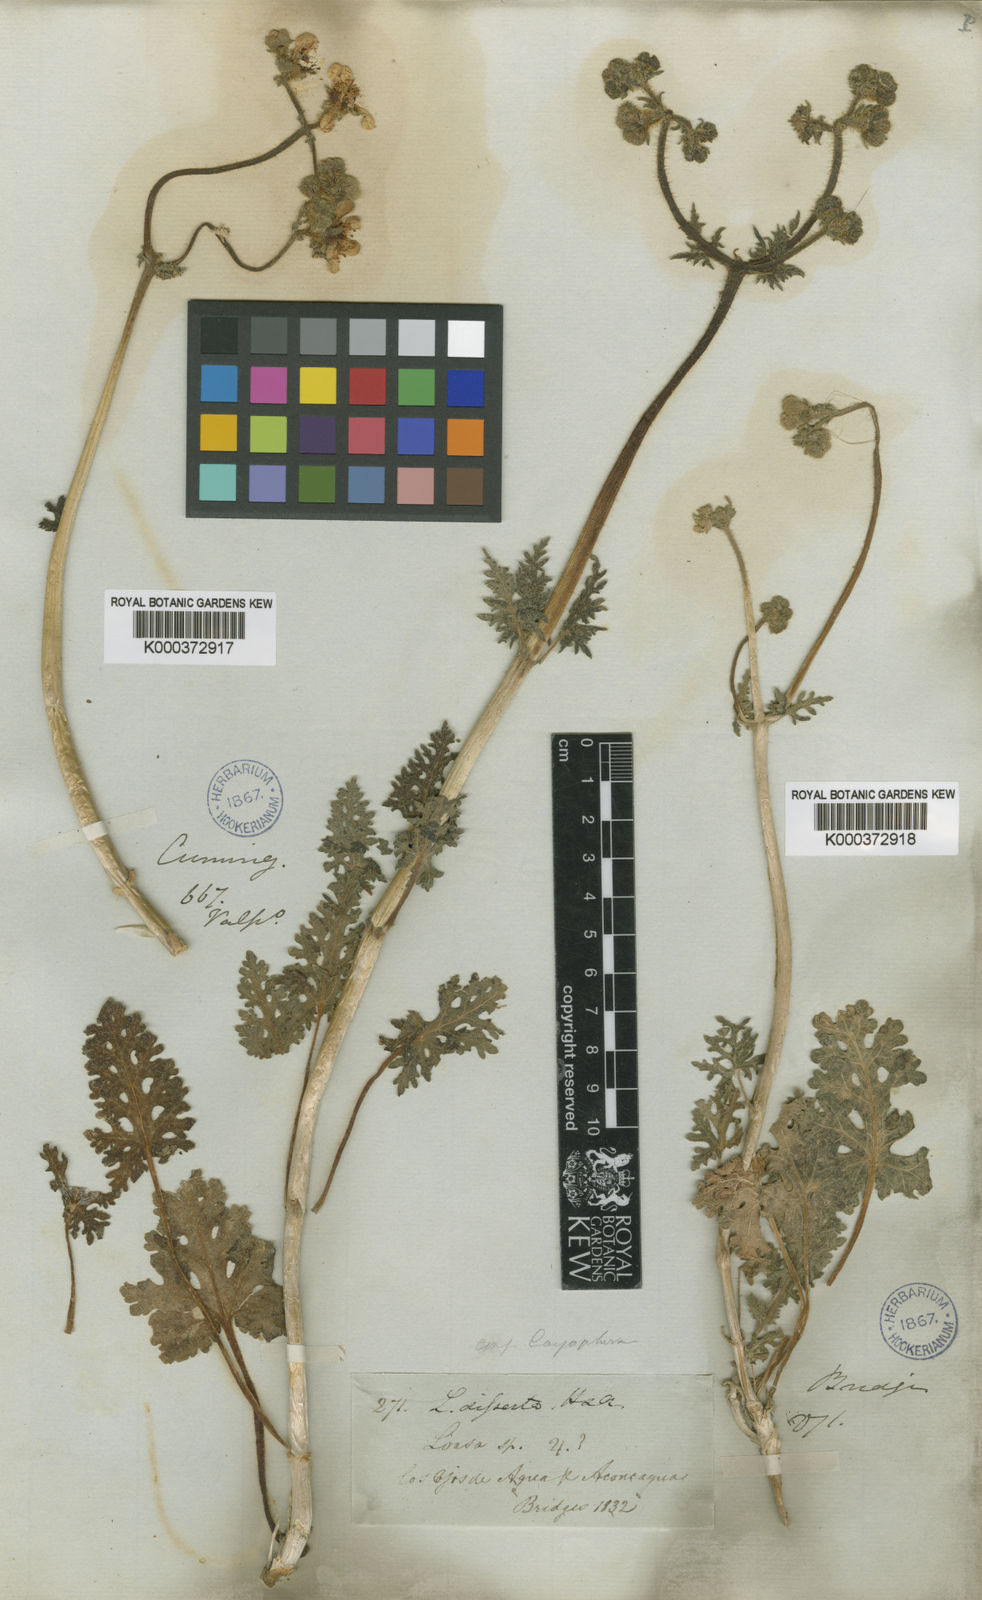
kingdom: Plantae
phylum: Tracheophyta
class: Magnoliopsida
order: Cornales
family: Loasaceae
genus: Blumenbachia
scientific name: Blumenbachia dissecta
